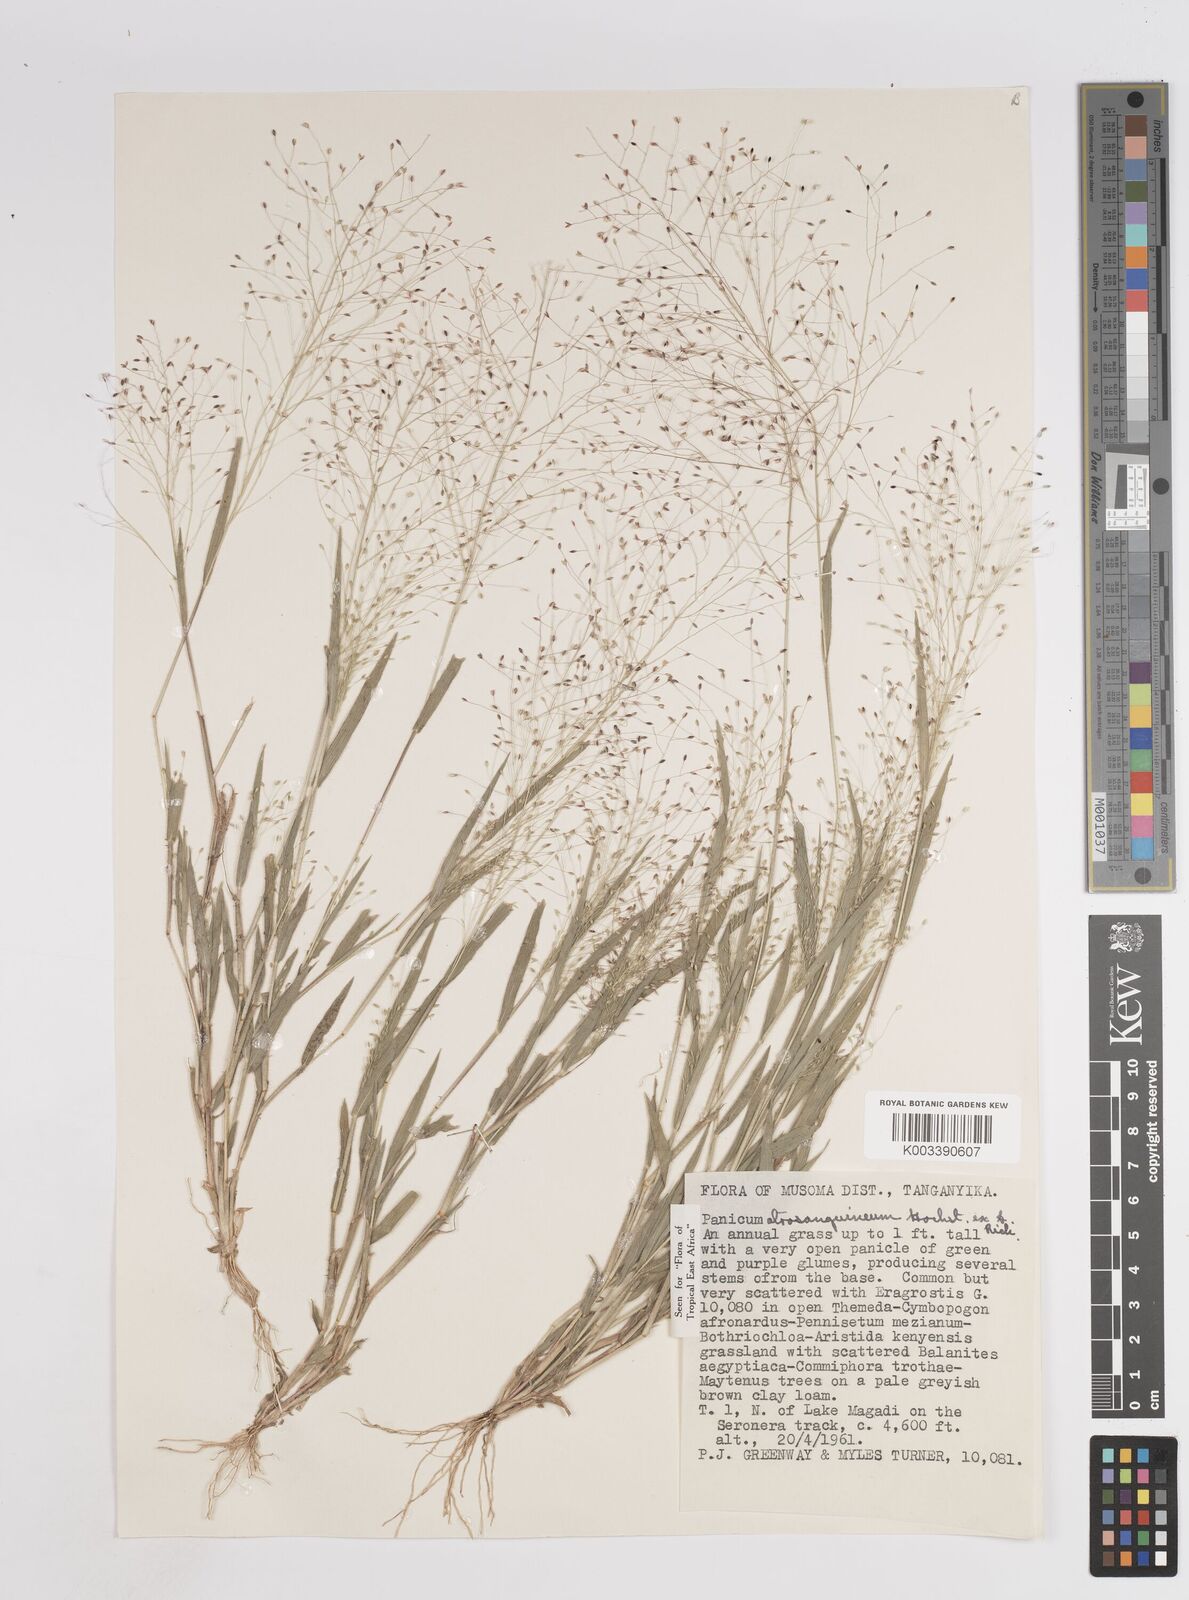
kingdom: Plantae
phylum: Tracheophyta
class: Liliopsida
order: Poales
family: Poaceae
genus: Panicum
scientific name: Panicum atrosanguineum
